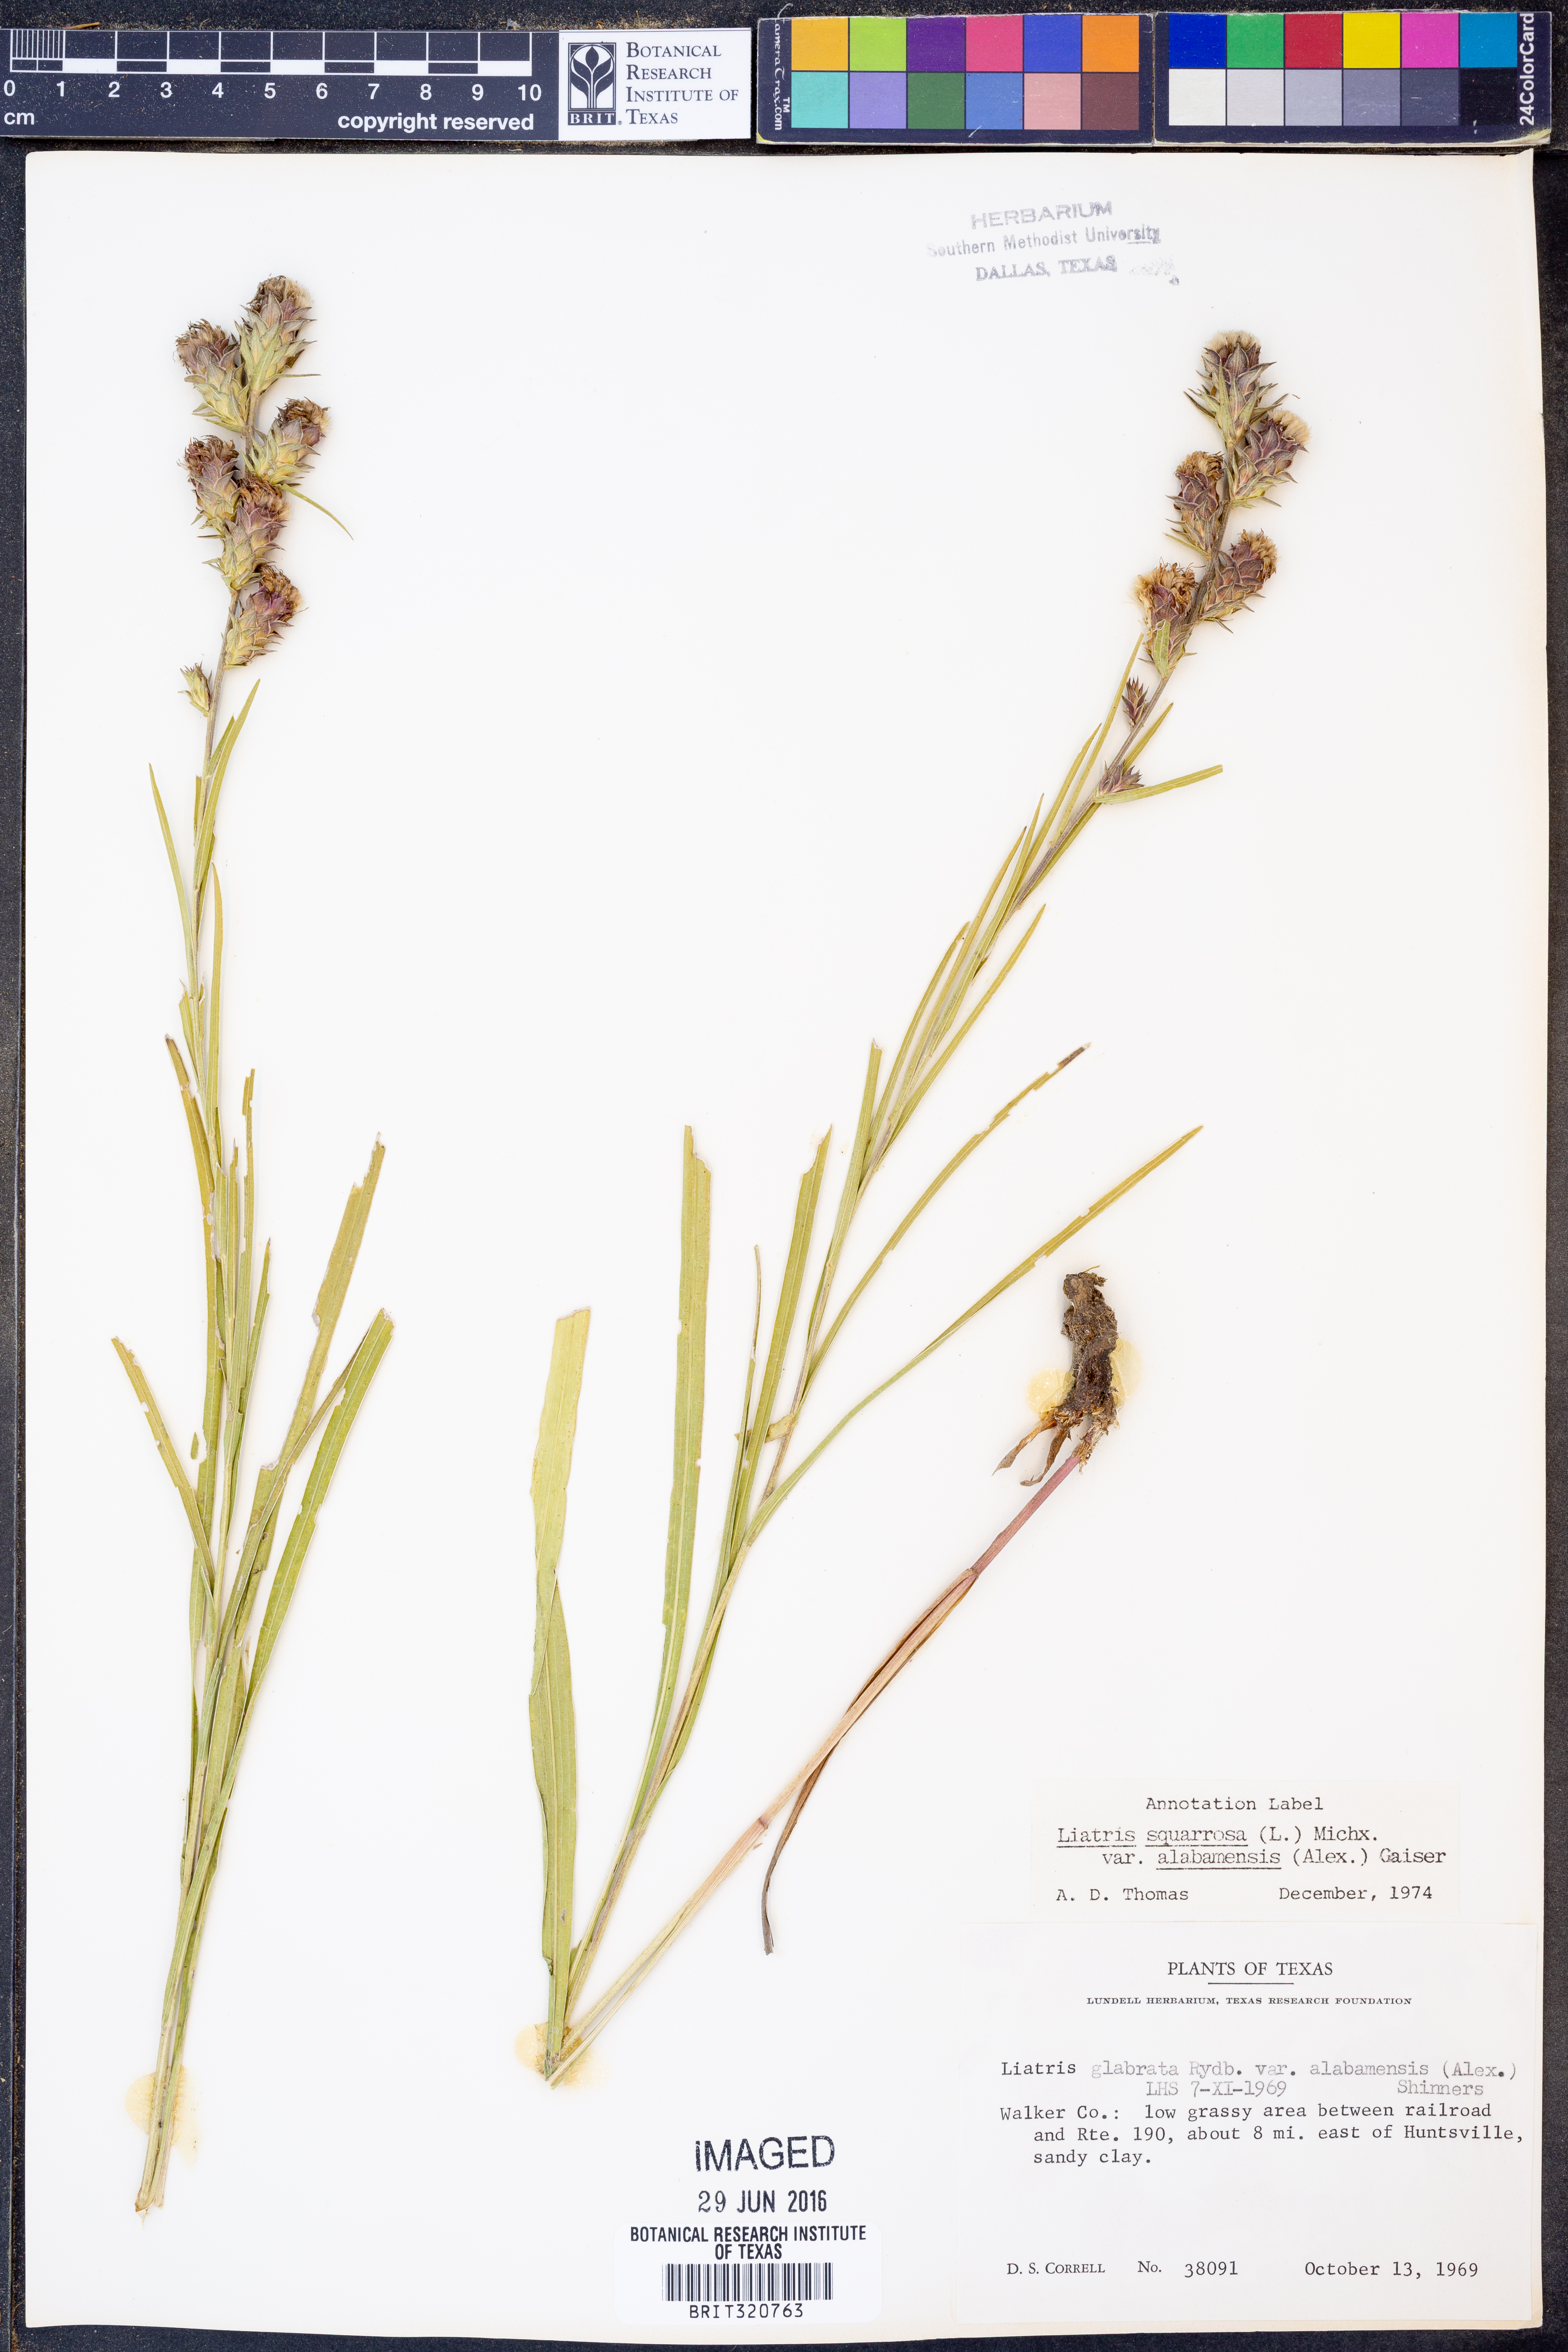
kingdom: Plantae
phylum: Tracheophyta
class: Magnoliopsida
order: Asterales
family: Asteraceae
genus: Liatris
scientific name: Liatris squarrosa
